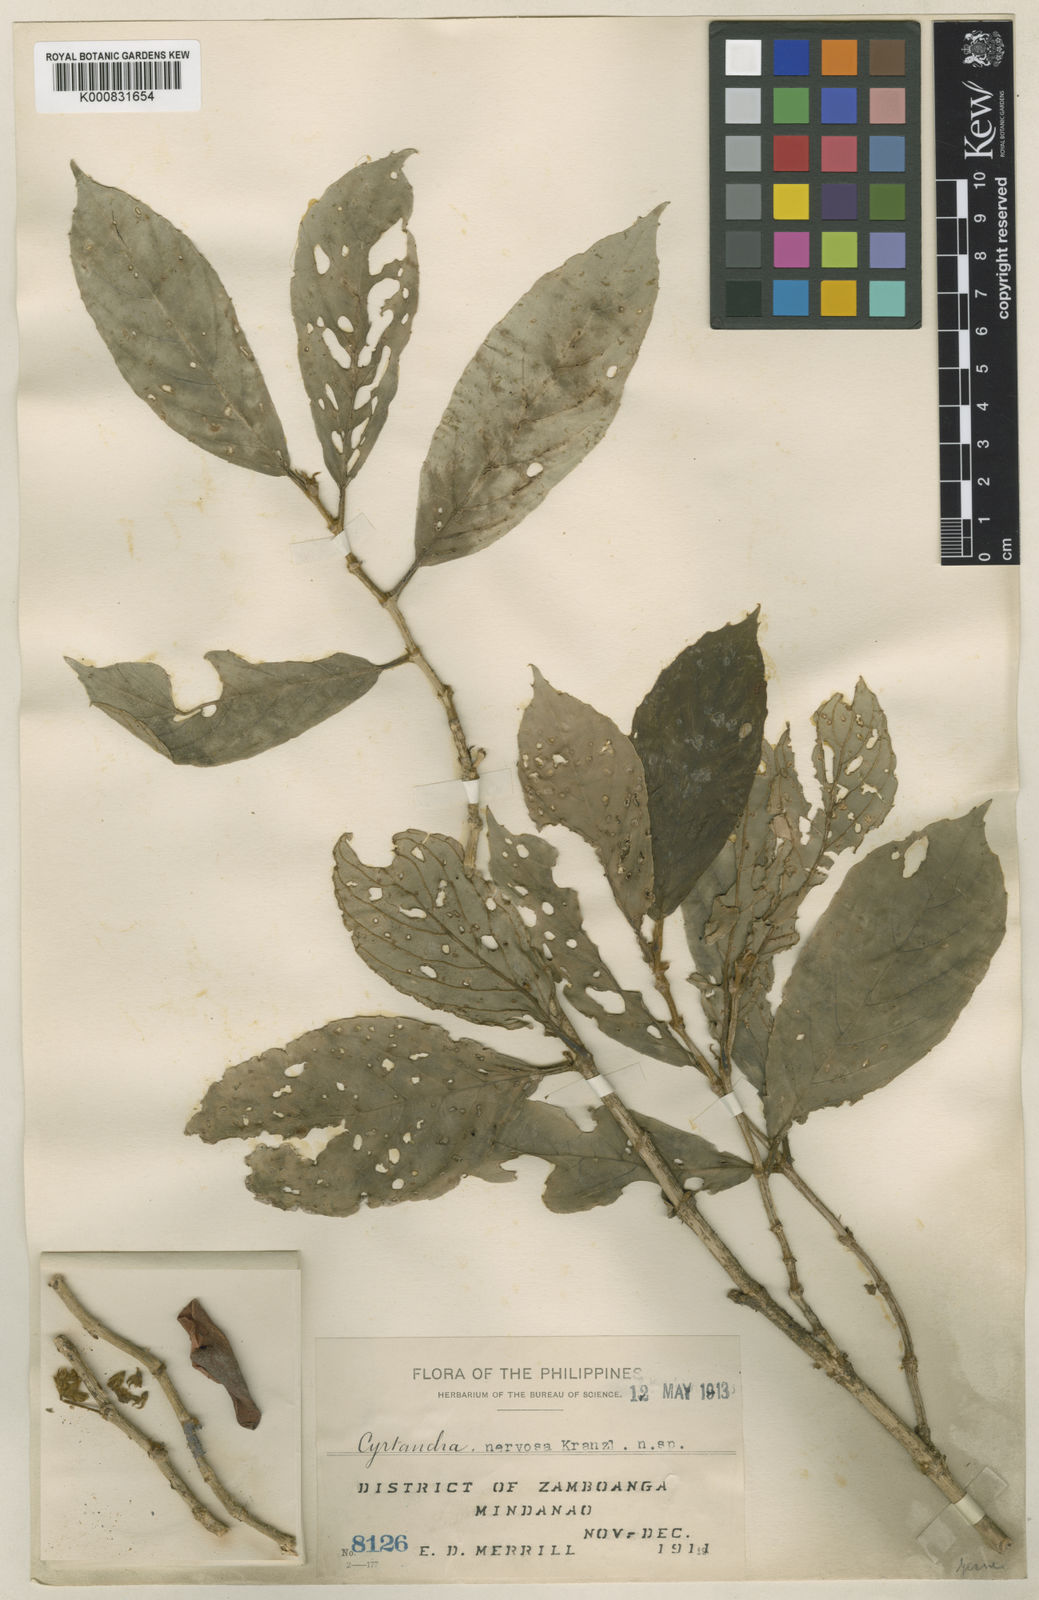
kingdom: Plantae
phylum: Tracheophyta
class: Magnoliopsida
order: Lamiales
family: Gesneriaceae
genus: Cyrtandra
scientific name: Cyrtandra maesifolia
